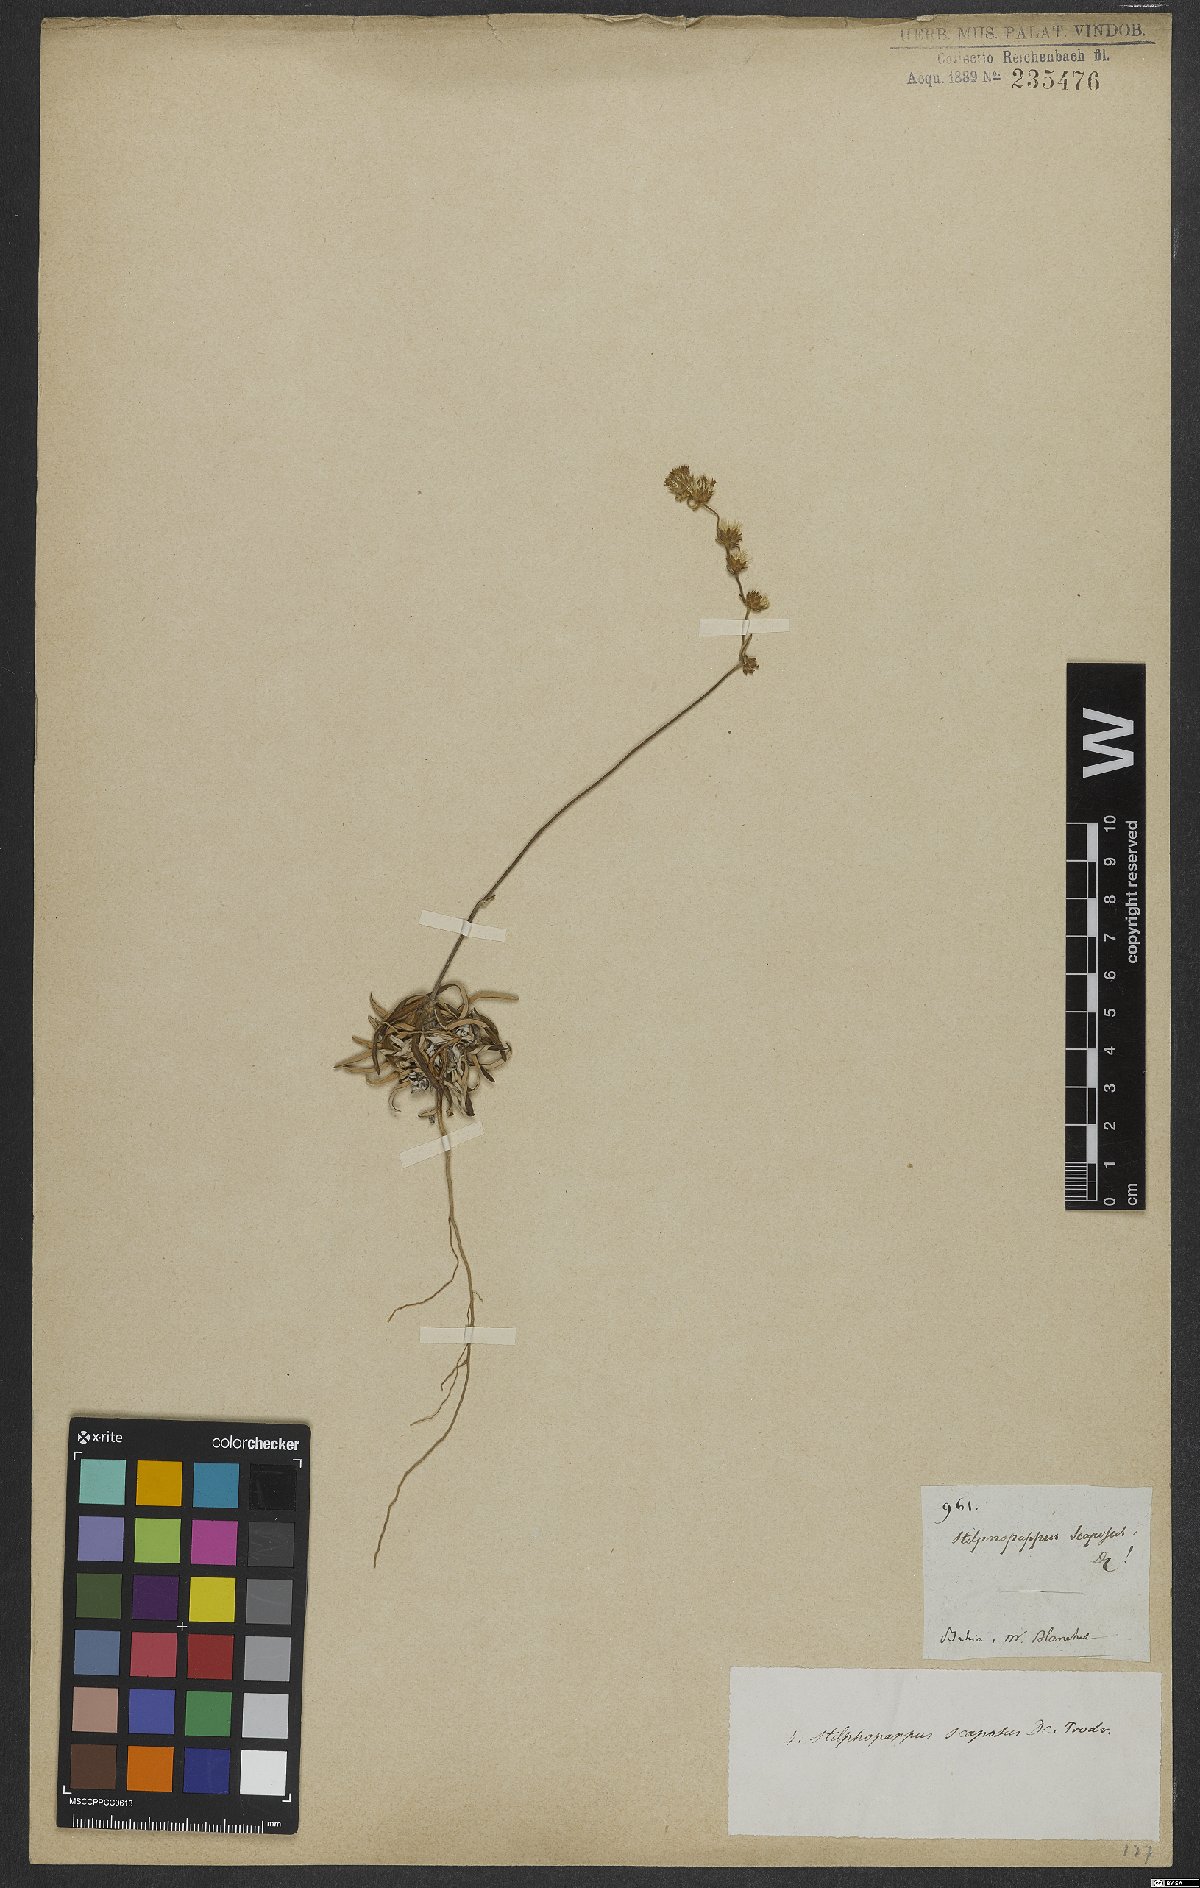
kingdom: Plantae
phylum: Tracheophyta
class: Magnoliopsida
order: Asterales
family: Asteraceae
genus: Stilpnopappus
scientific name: Stilpnopappus scaposus
